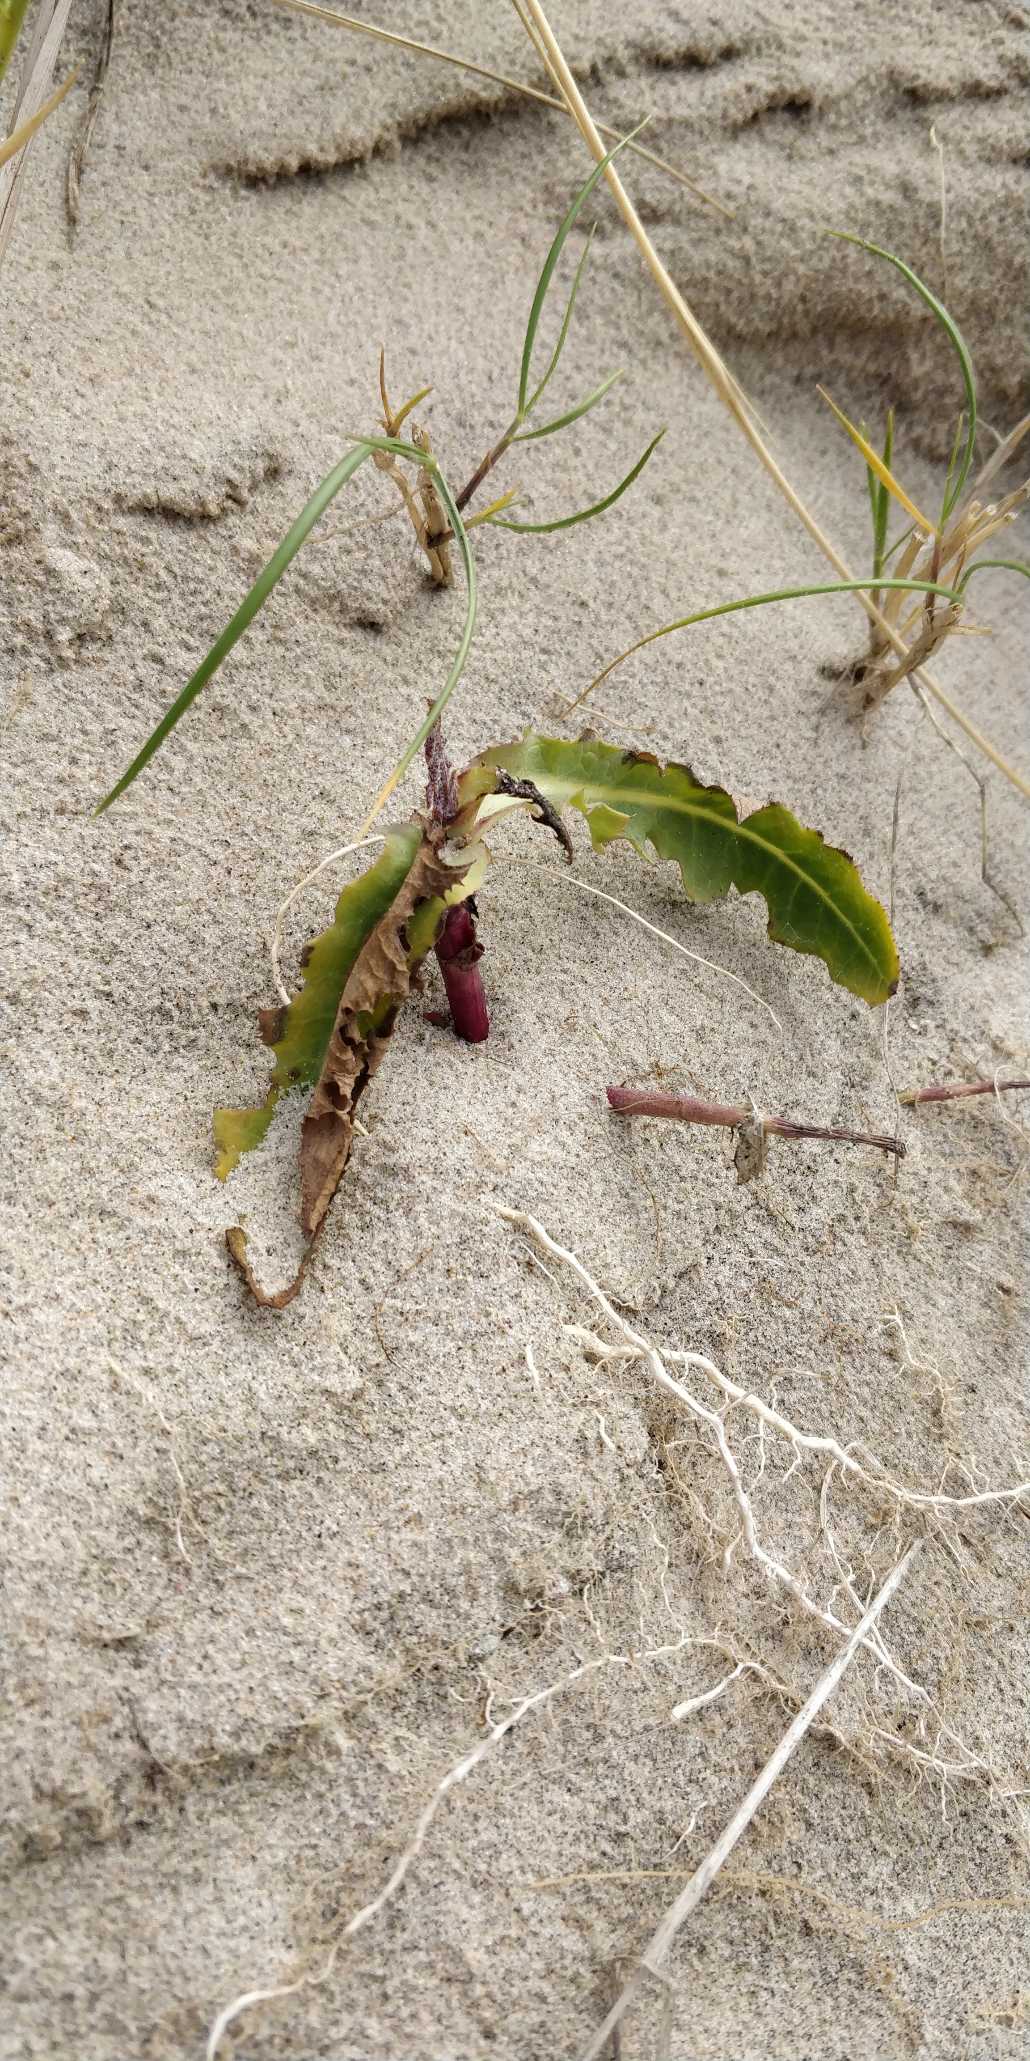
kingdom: Plantae
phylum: Tracheophyta
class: Magnoliopsida
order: Caryophyllales
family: Polygonaceae
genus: Rumex
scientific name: Rumex crispus
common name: Kruset skræppe
